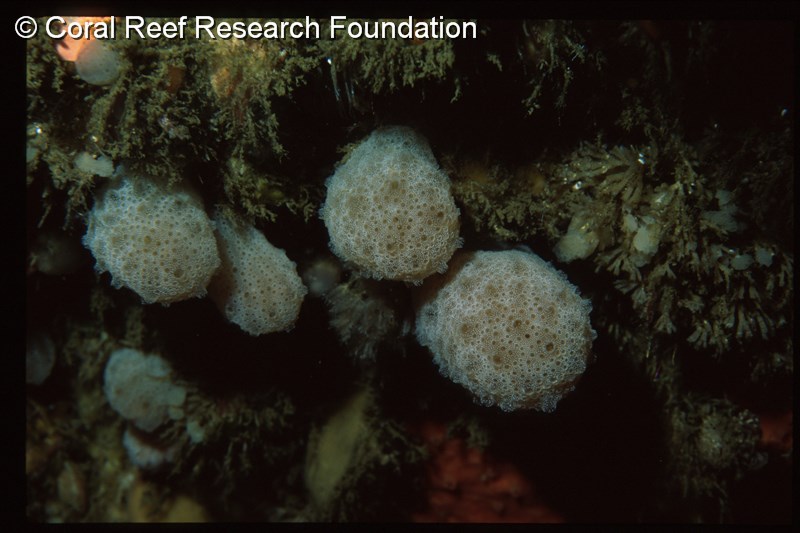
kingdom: Animalia
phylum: Chordata
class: Ascidiacea
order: Aplousobranchia
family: Holozoidae
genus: Distaplia
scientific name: Distaplia skoogi
